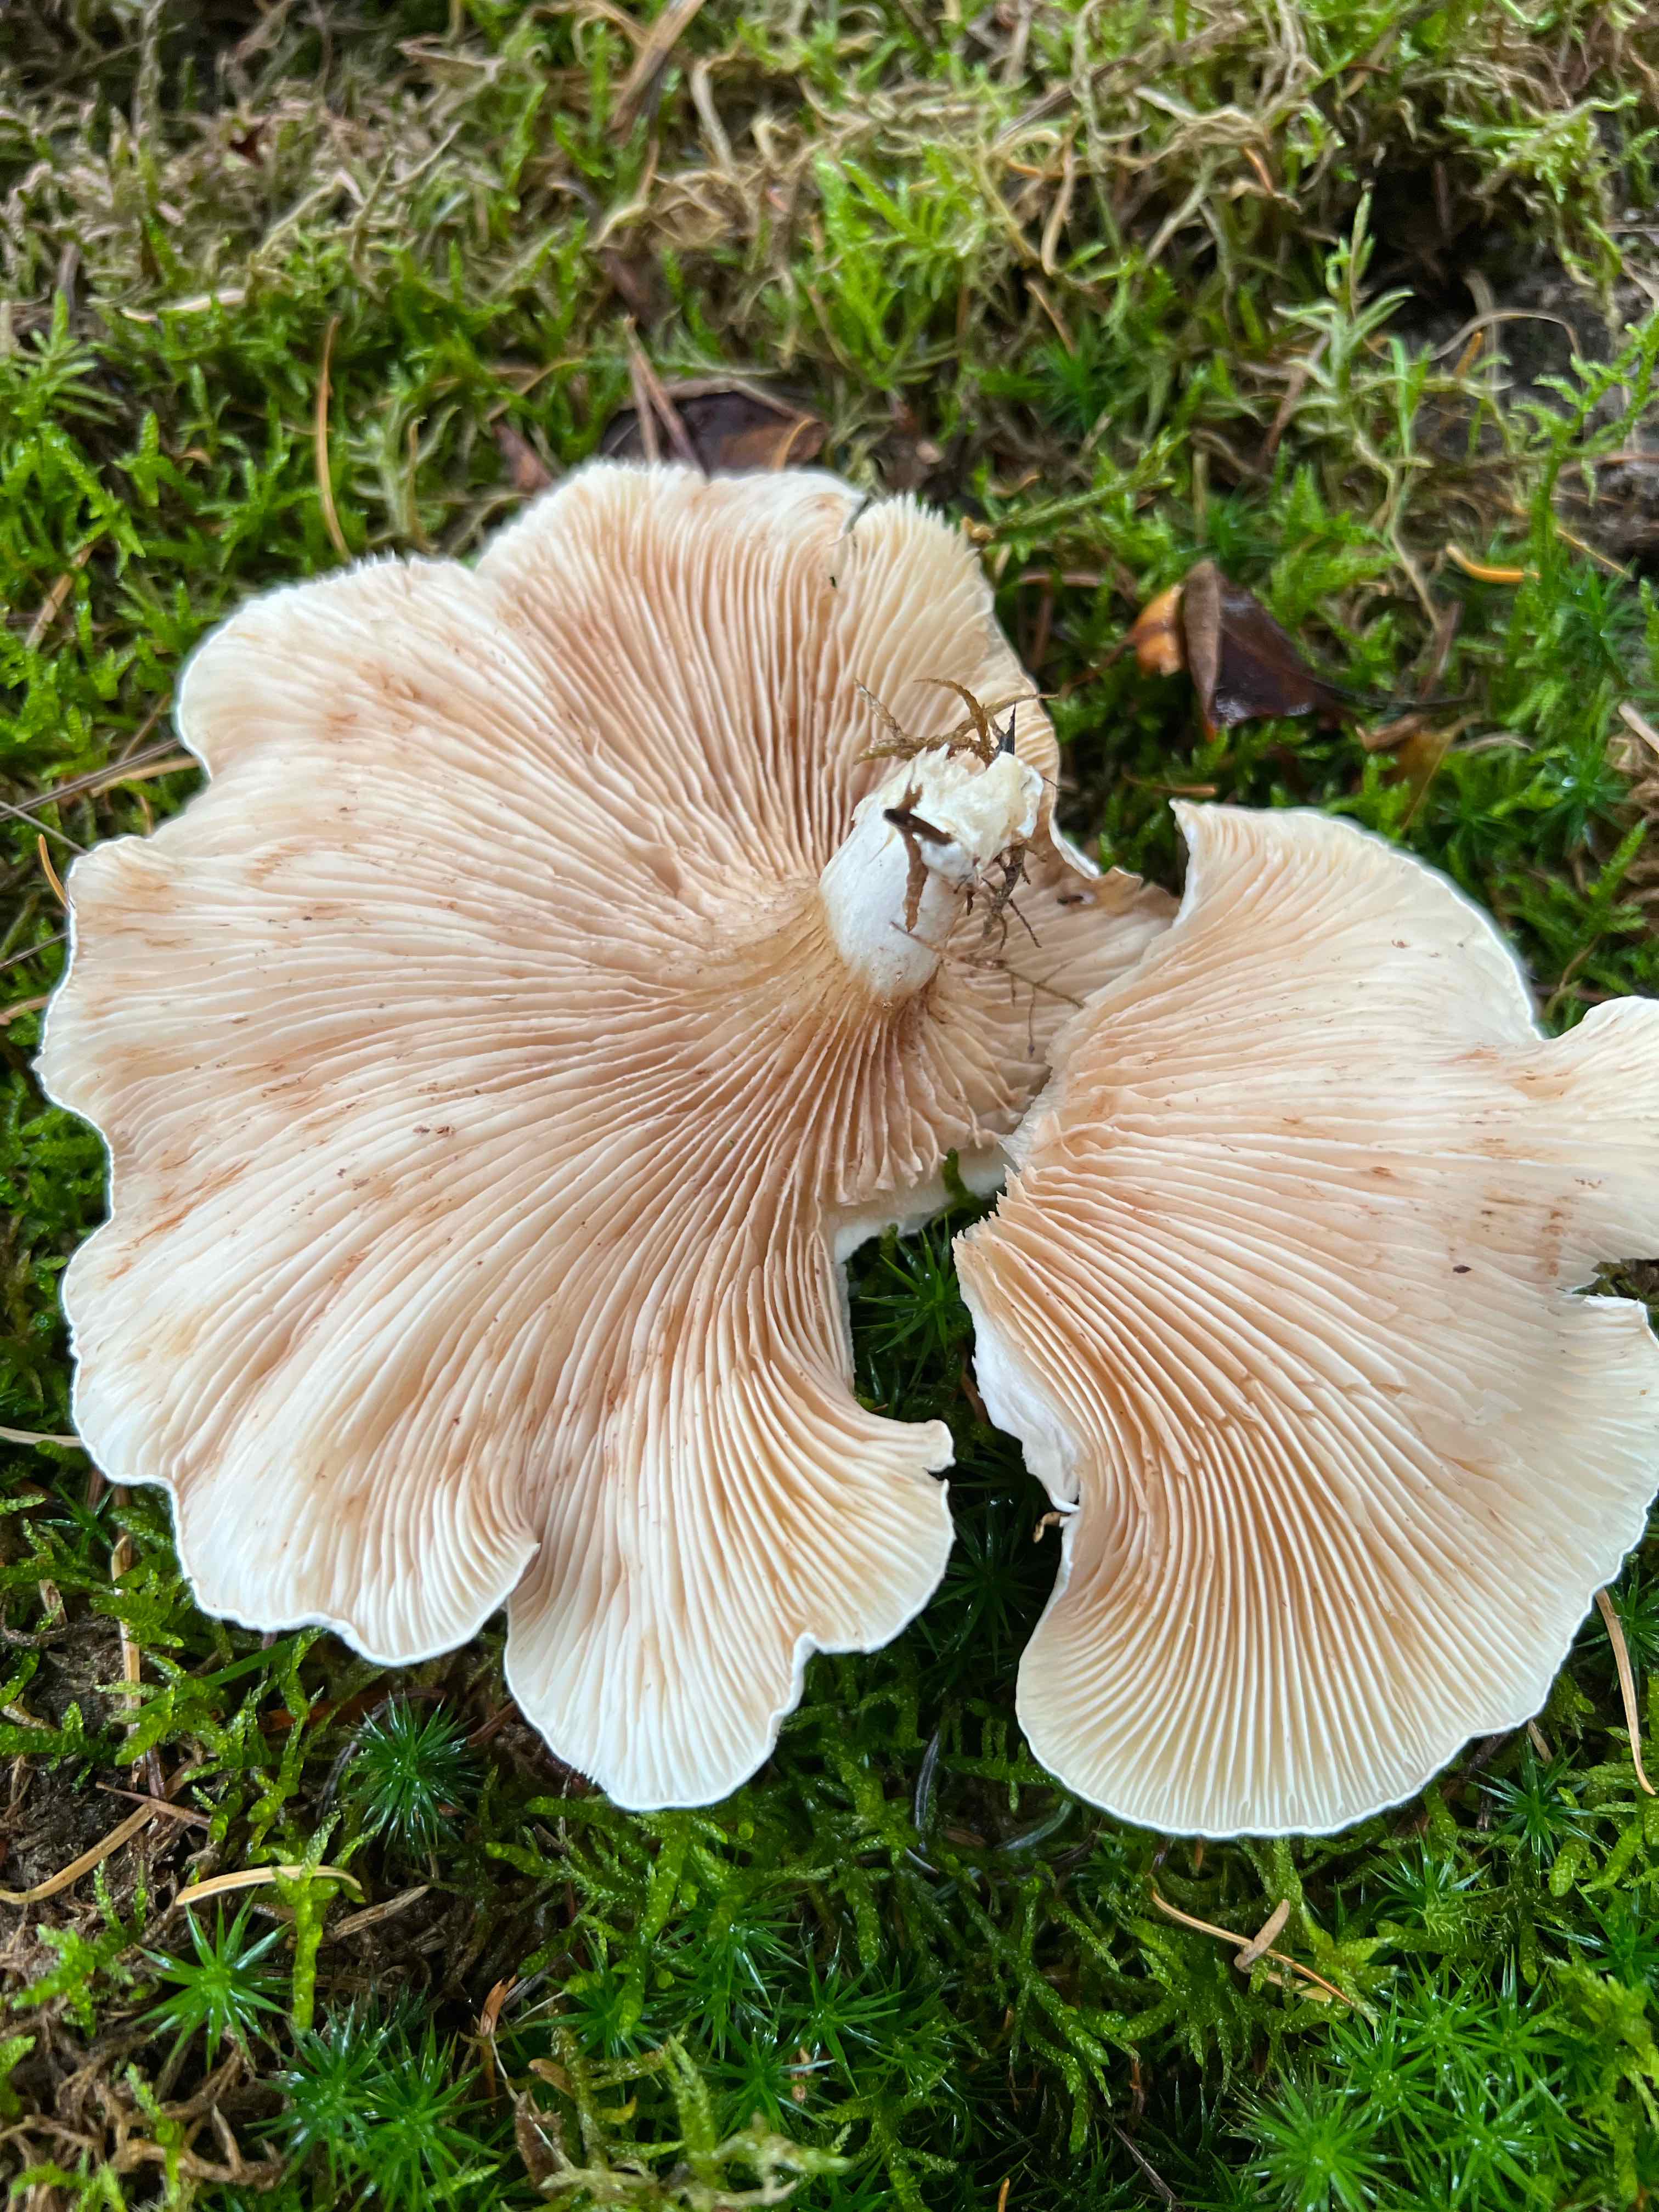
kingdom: Fungi
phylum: Basidiomycota
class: Agaricomycetes
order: Agaricales
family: Entolomataceae
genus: Clitopilus
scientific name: Clitopilus prunulus
